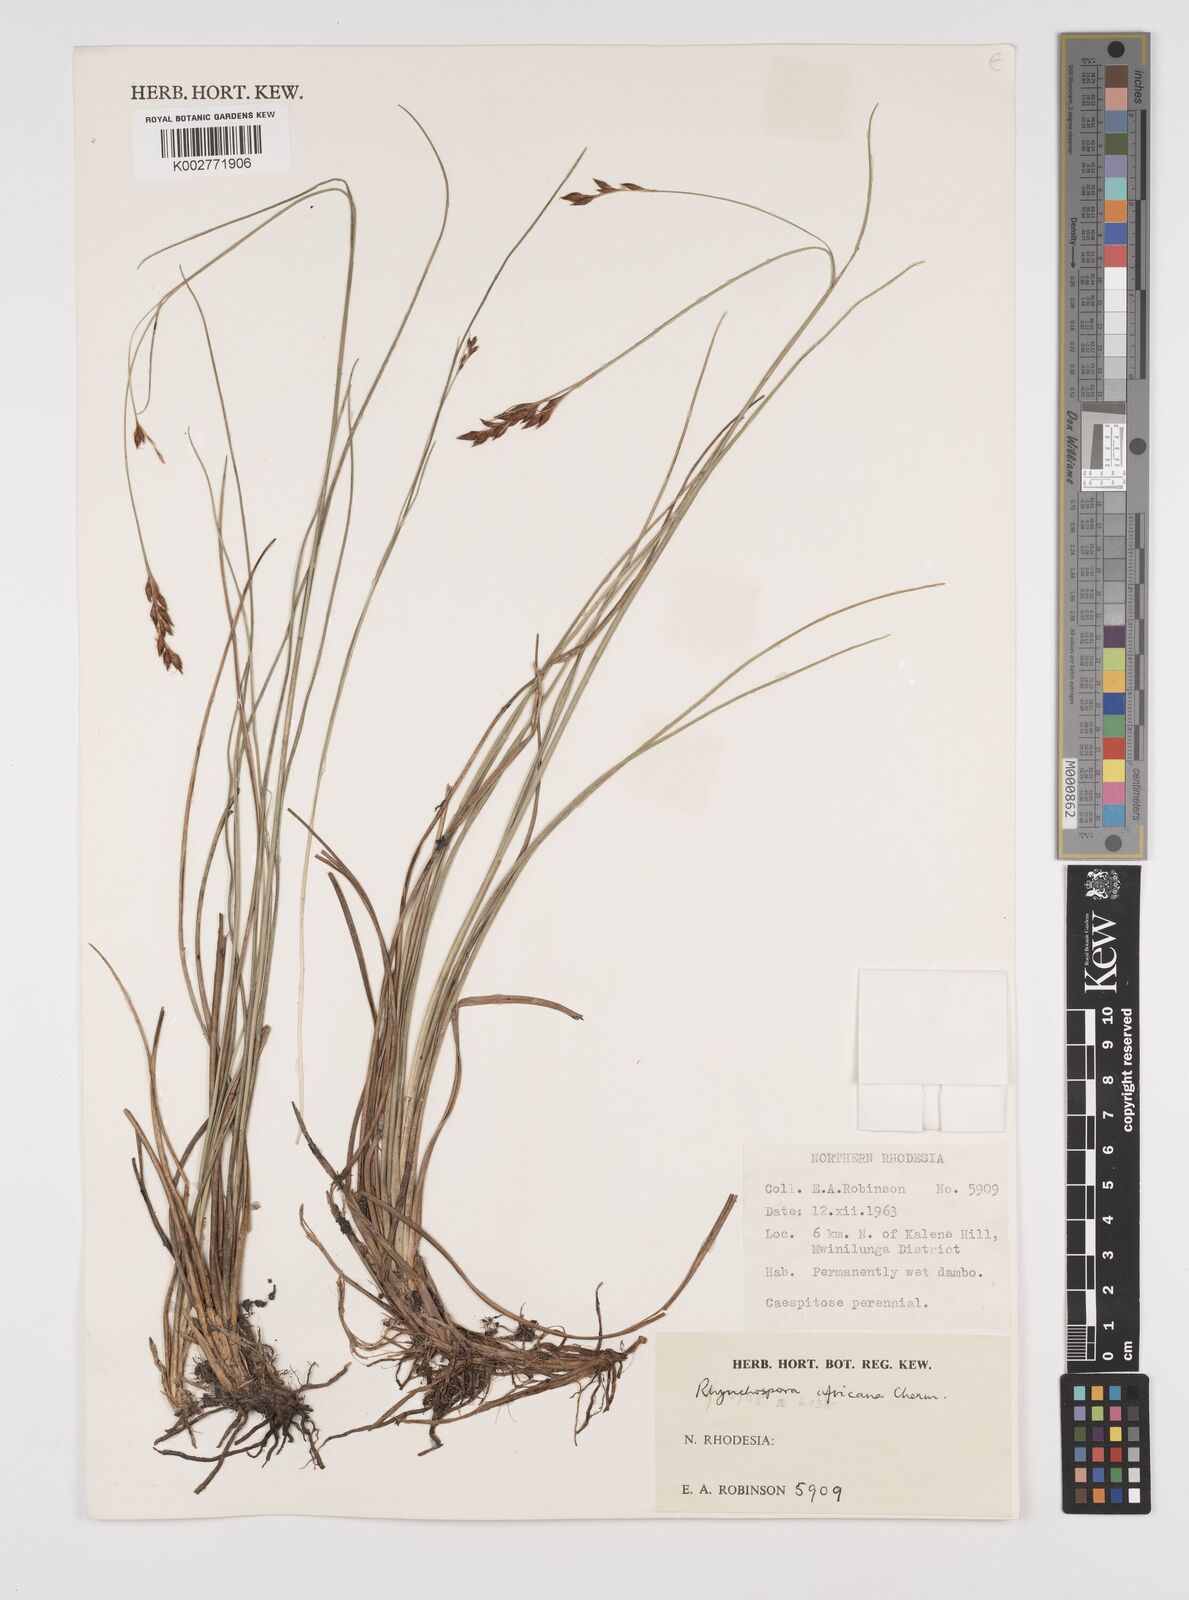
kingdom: Plantae
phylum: Tracheophyta
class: Liliopsida
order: Poales
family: Cyperaceae
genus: Rhynchospora
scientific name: Rhynchospora angolensis
